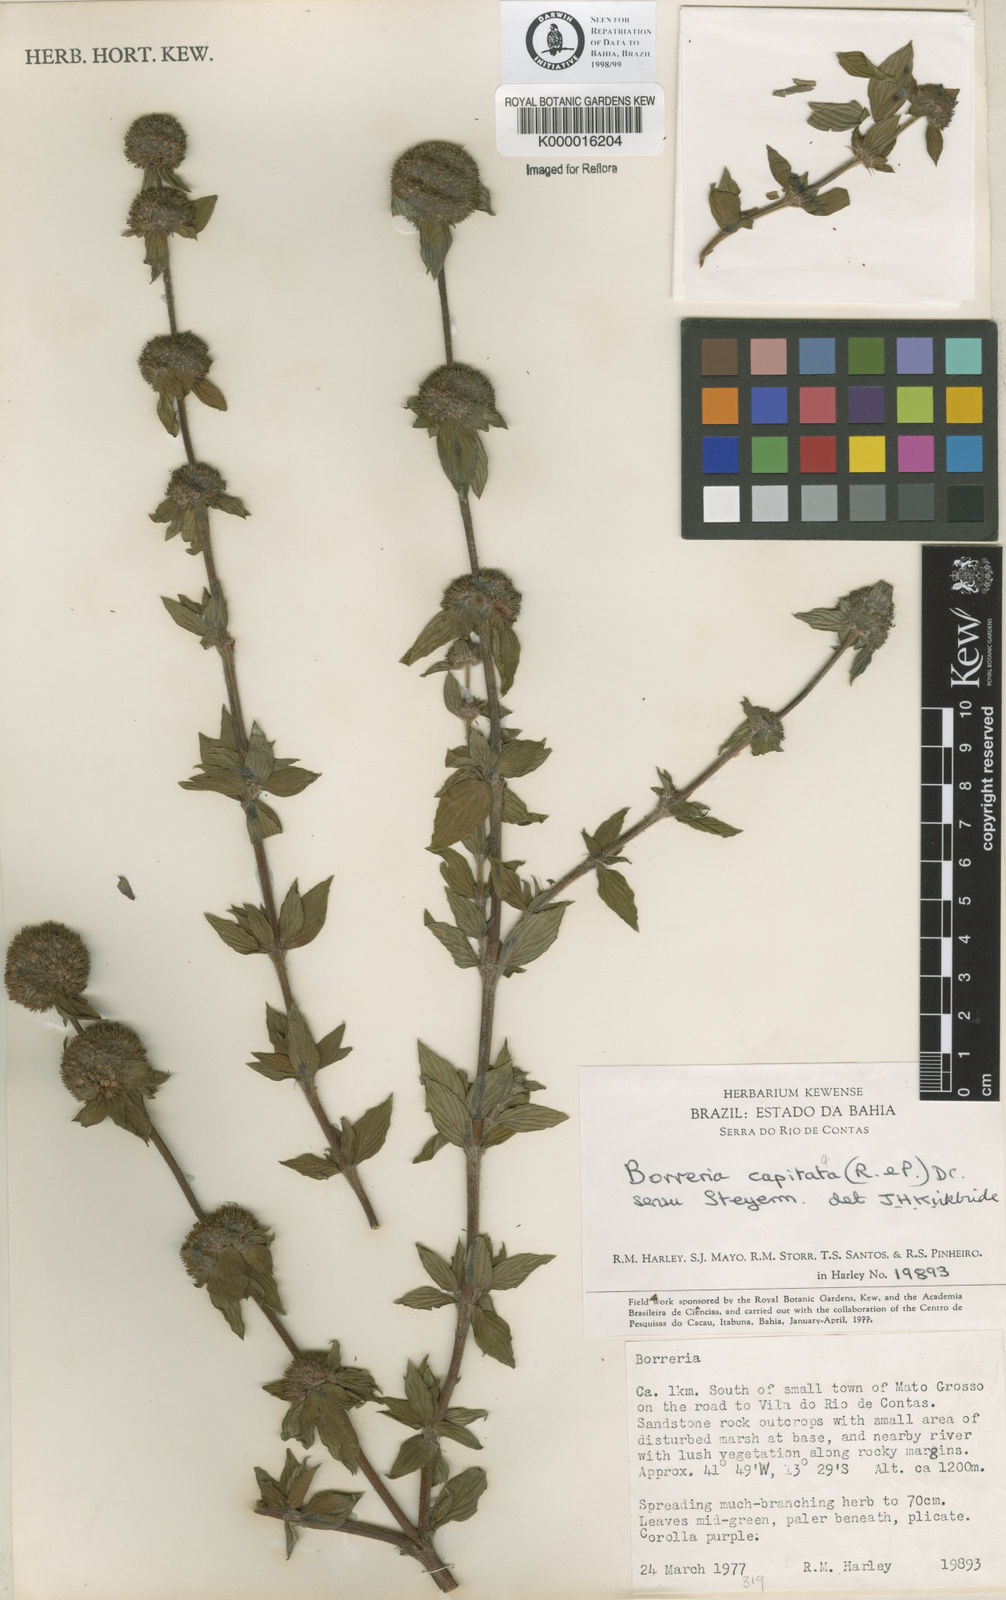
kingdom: Plantae
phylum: Tracheophyta
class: Magnoliopsida
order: Gentianales
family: Rubiaceae
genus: Spermacoce
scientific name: Spermacoce capitata
